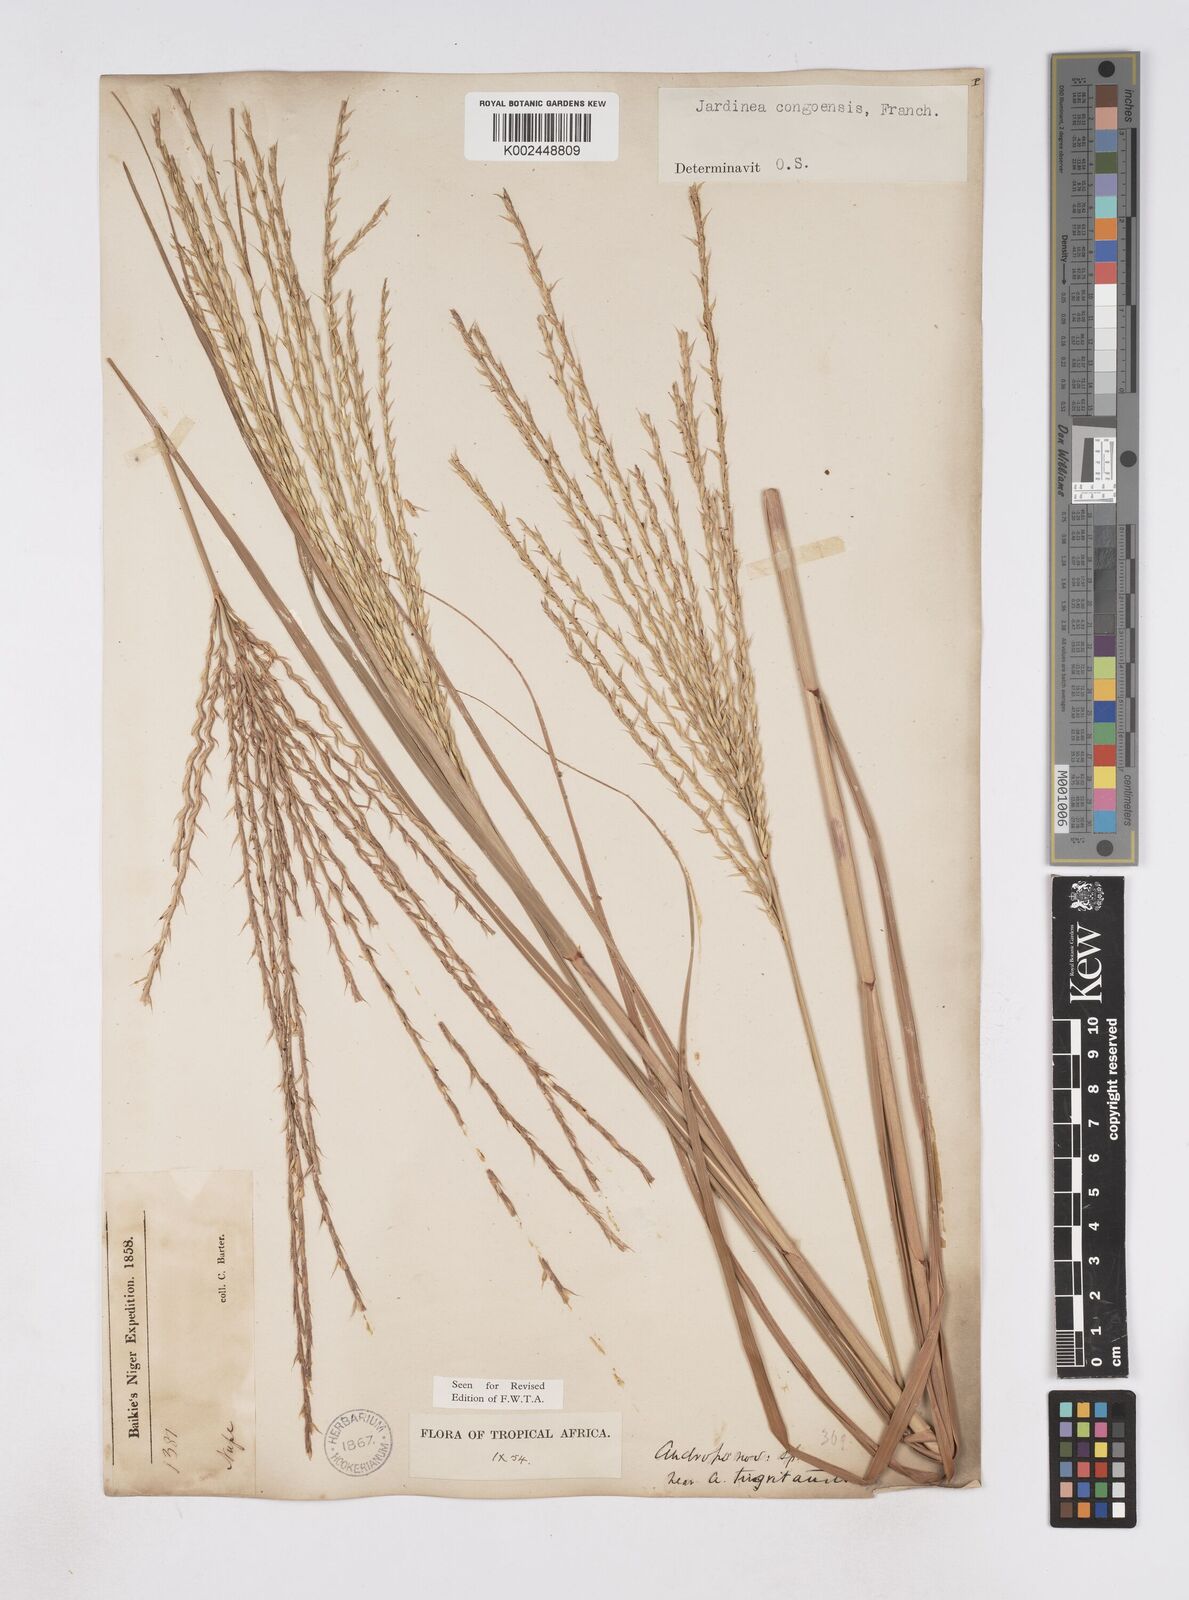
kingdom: Plantae
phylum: Tracheophyta
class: Liliopsida
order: Poales
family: Poaceae
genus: Phacelurus
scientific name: Phacelurus gabonensis
